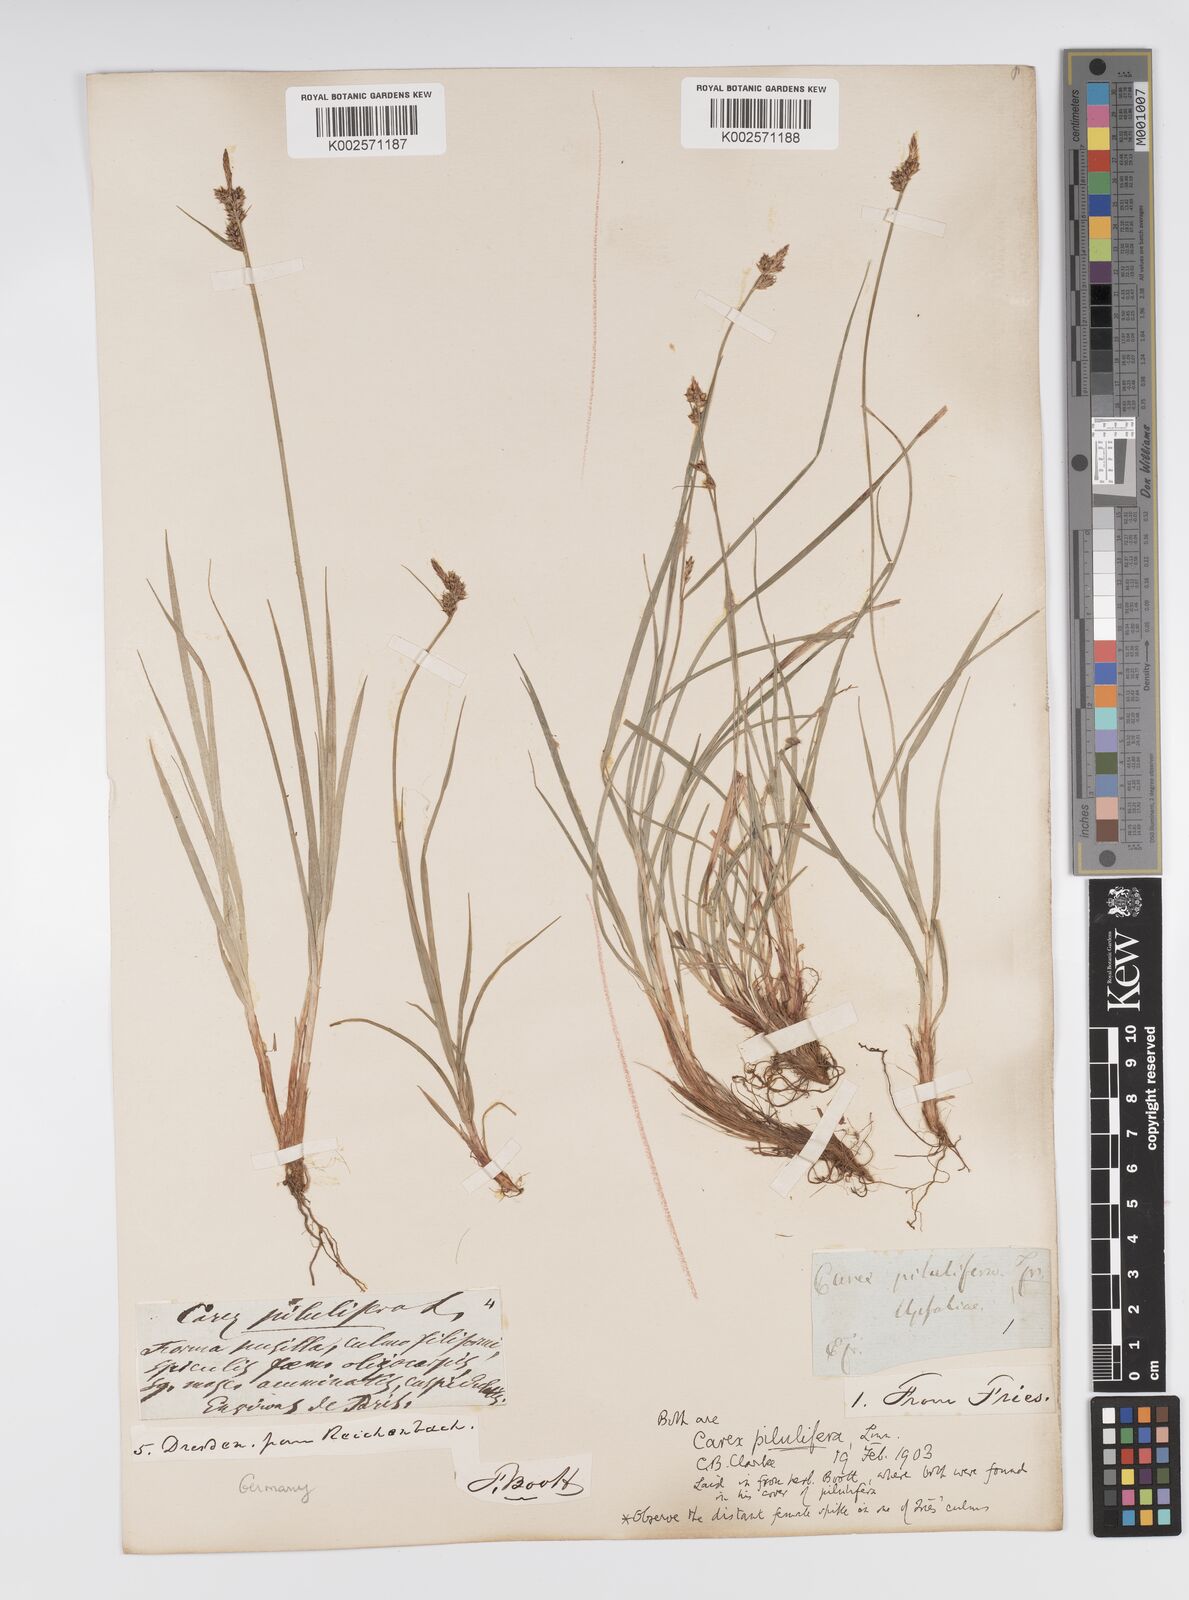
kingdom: Plantae
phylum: Tracheophyta
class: Liliopsida
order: Poales
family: Cyperaceae
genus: Carex
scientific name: Carex pilulifera
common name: Pill sedge
